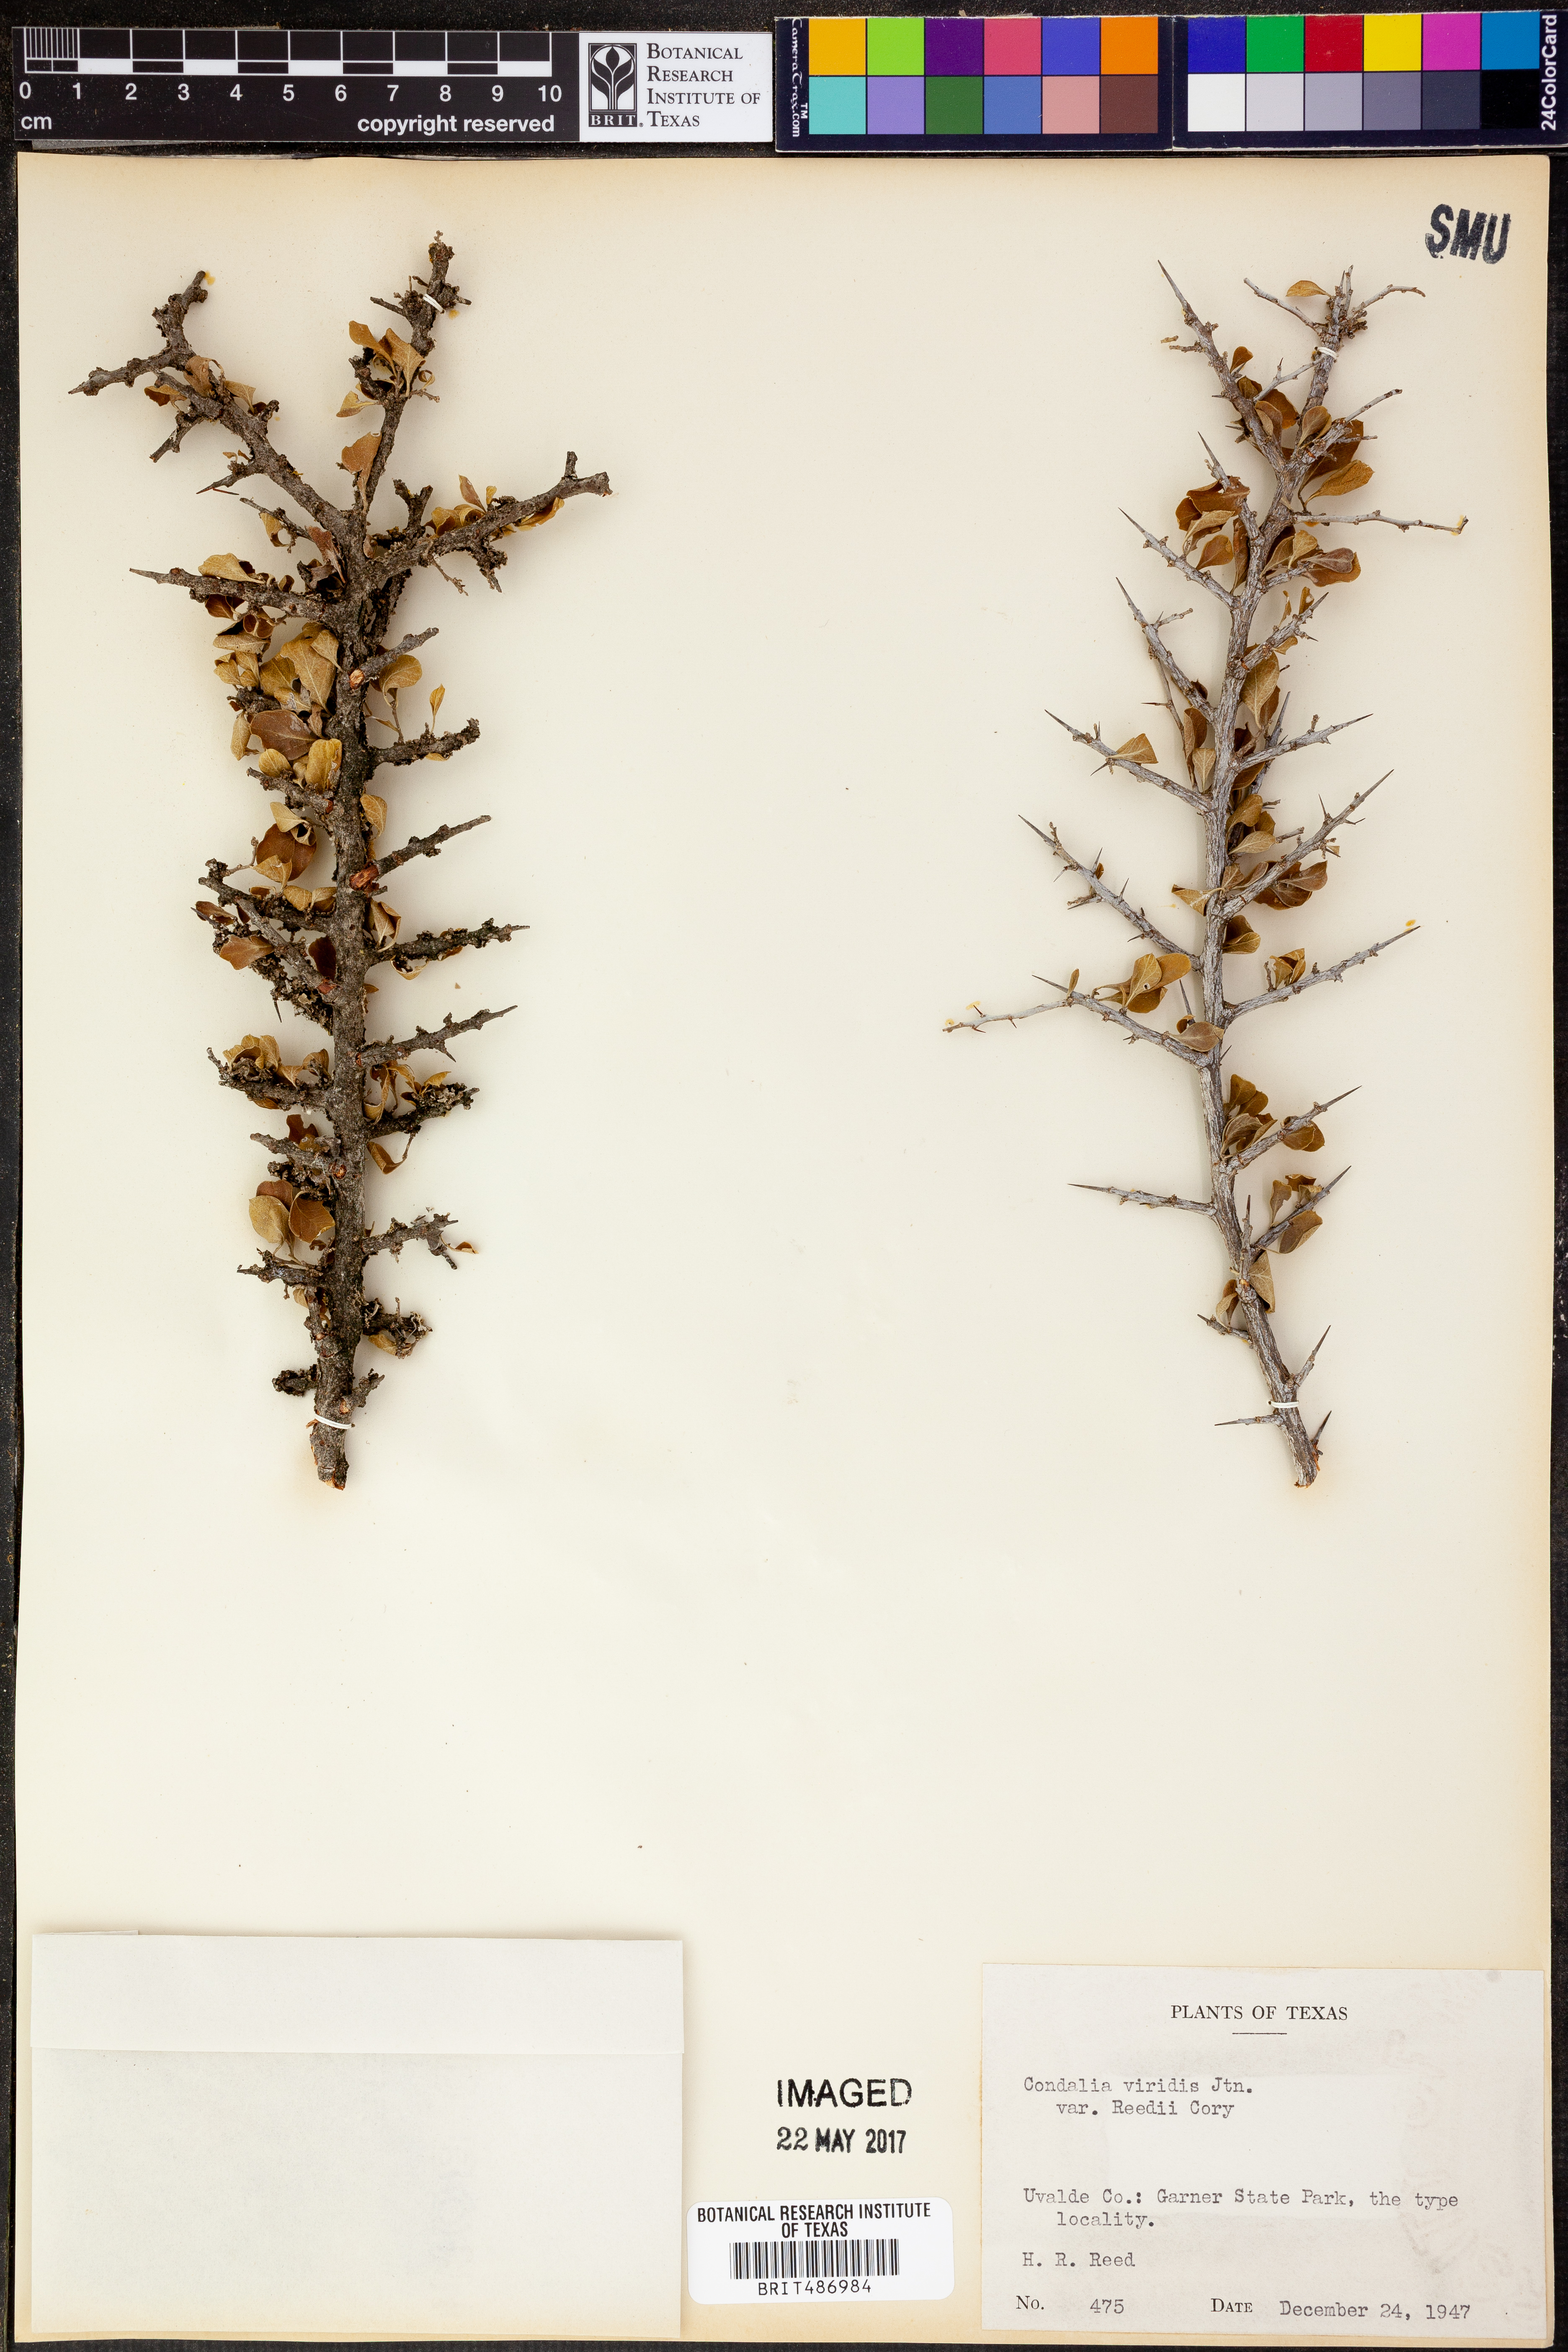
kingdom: Plantae
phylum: Tracheophyta
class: Magnoliopsida
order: Rosales
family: Rhamnaceae
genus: Condalia
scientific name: Condalia viridis
